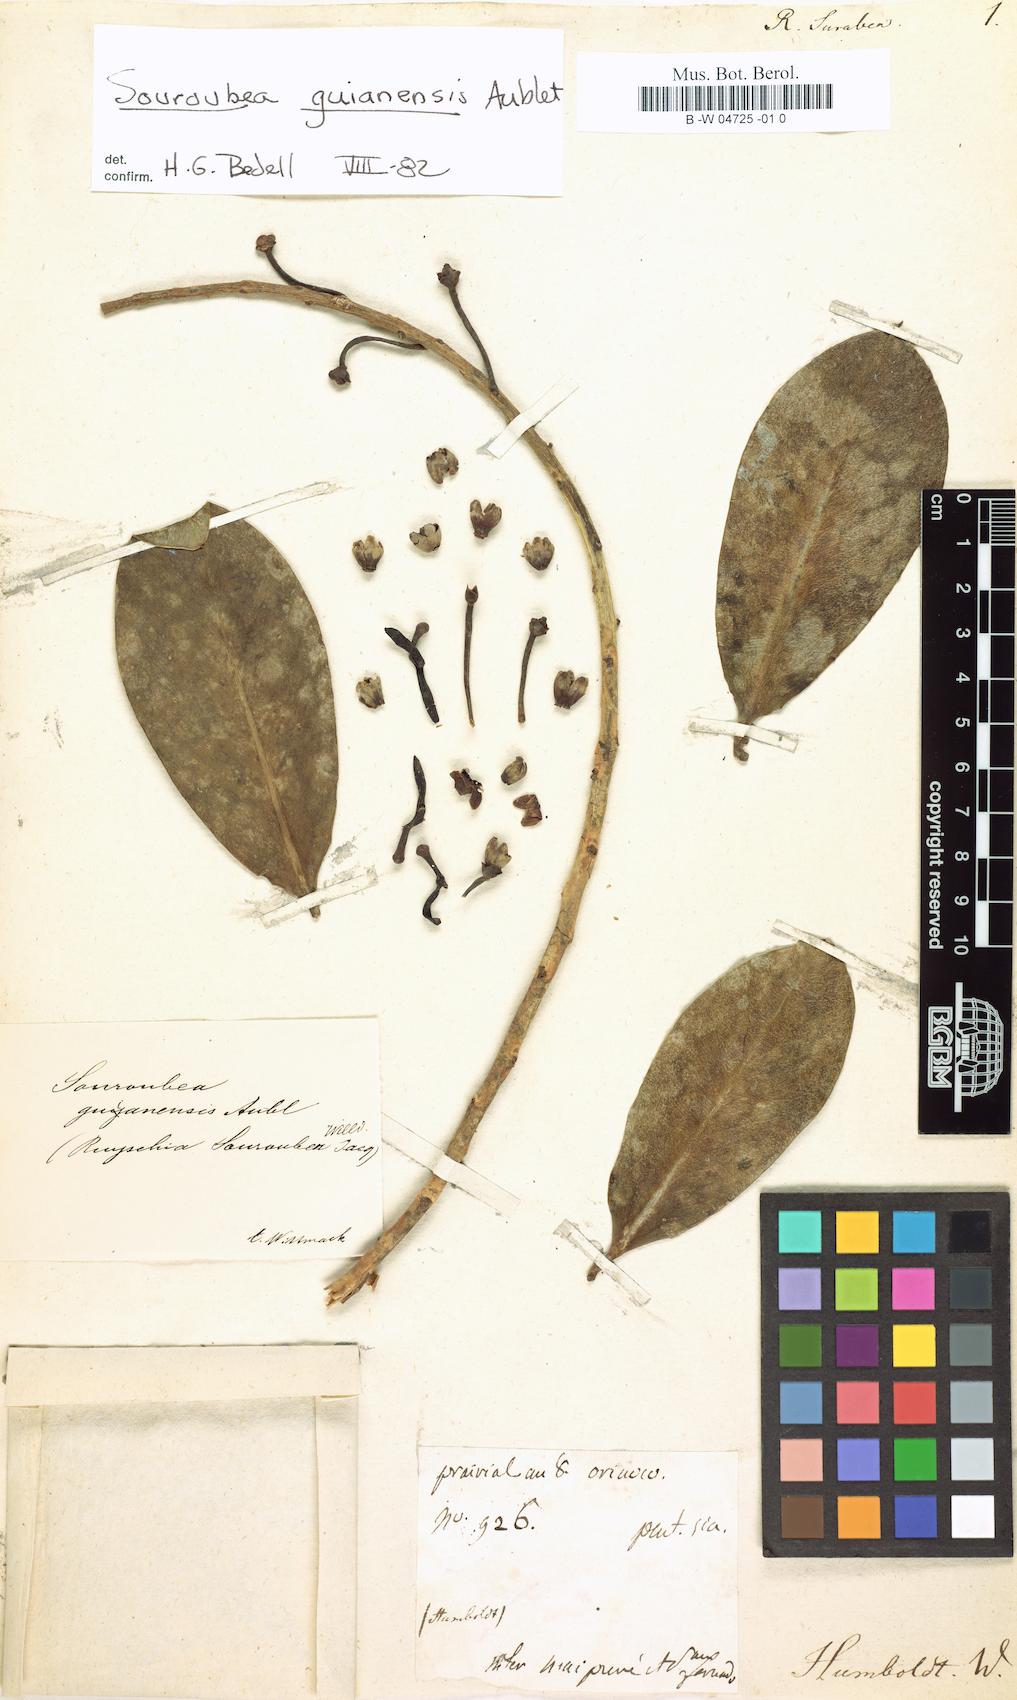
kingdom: Plantae
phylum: Tracheophyta
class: Magnoliopsida
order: Ericales
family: Marcgraviaceae
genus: Souroubea
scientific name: Souroubea guianensis
